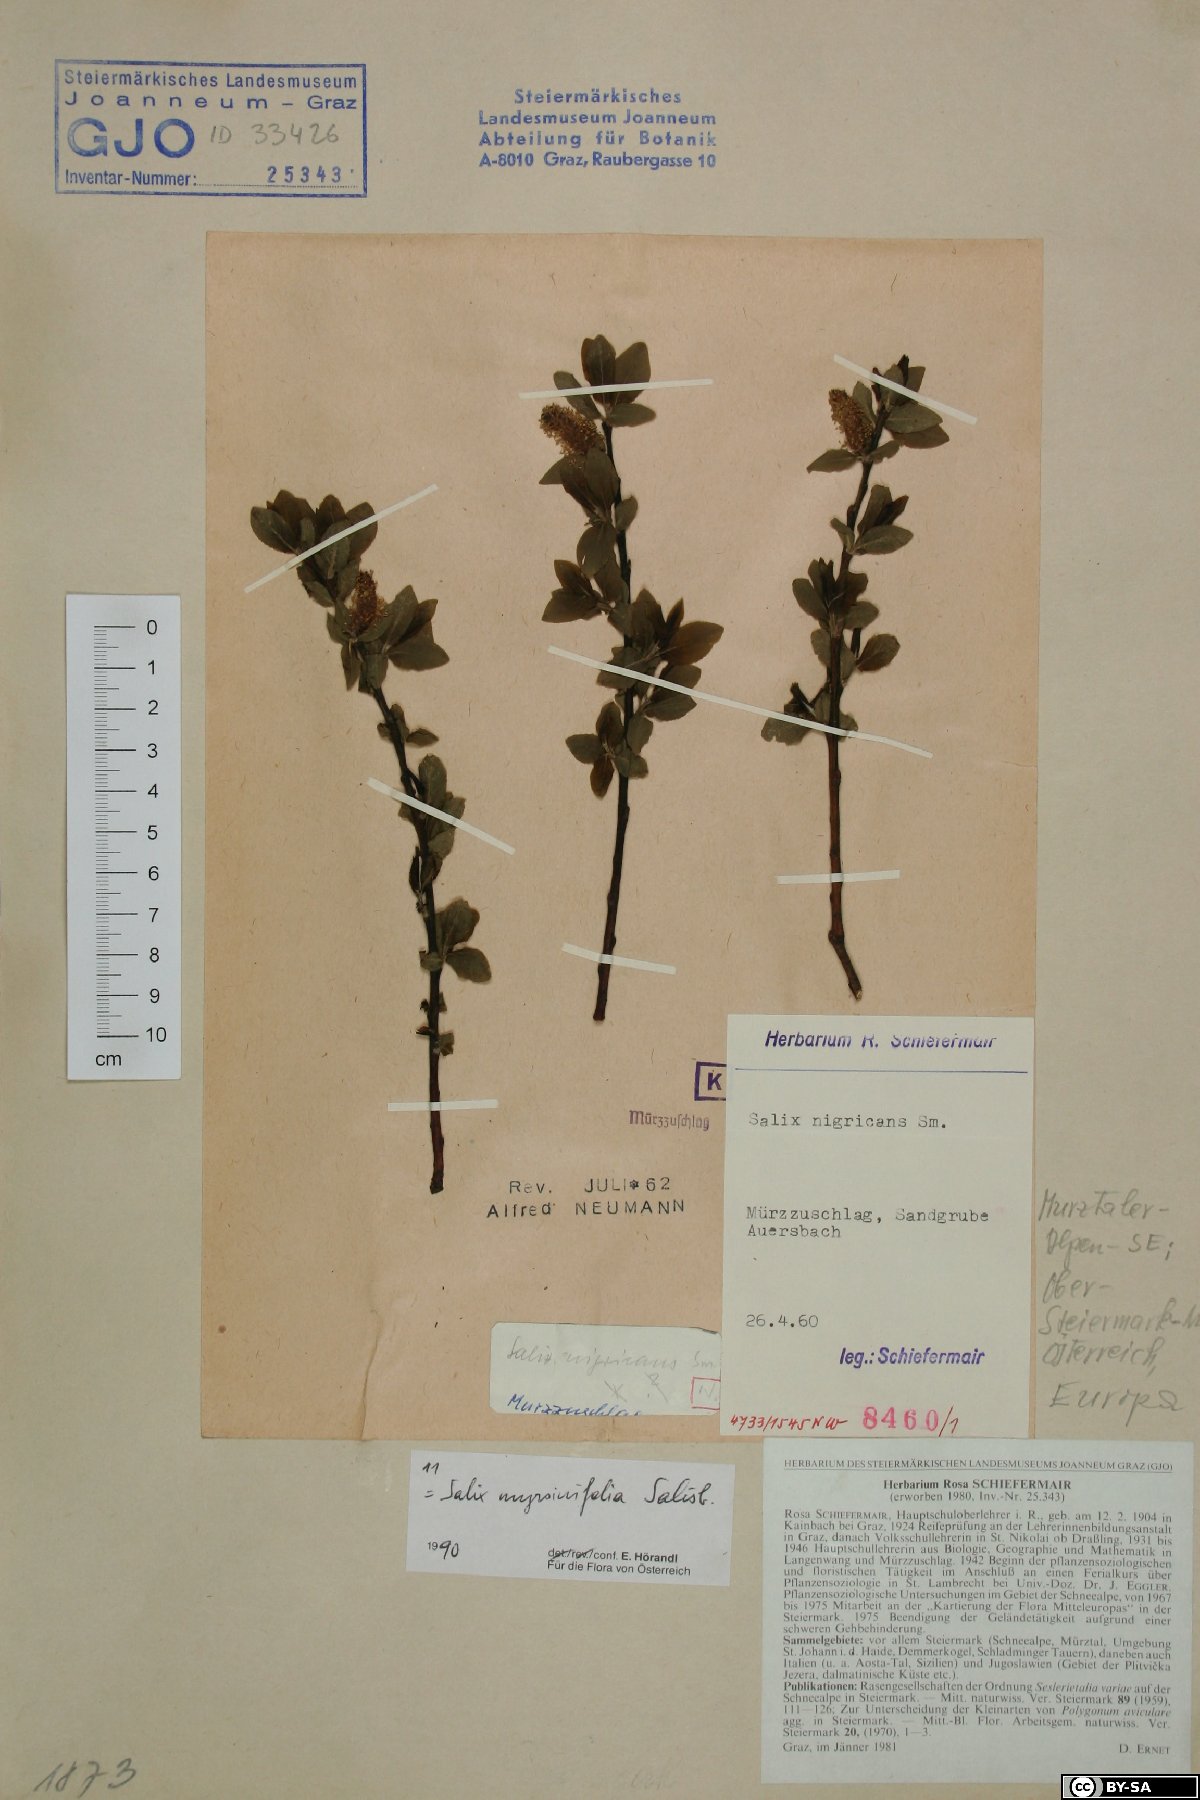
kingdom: Plantae
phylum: Tracheophyta
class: Magnoliopsida
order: Malpighiales
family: Salicaceae
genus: Salix
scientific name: Salix myrsinifolia
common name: Dark-leaved willow
